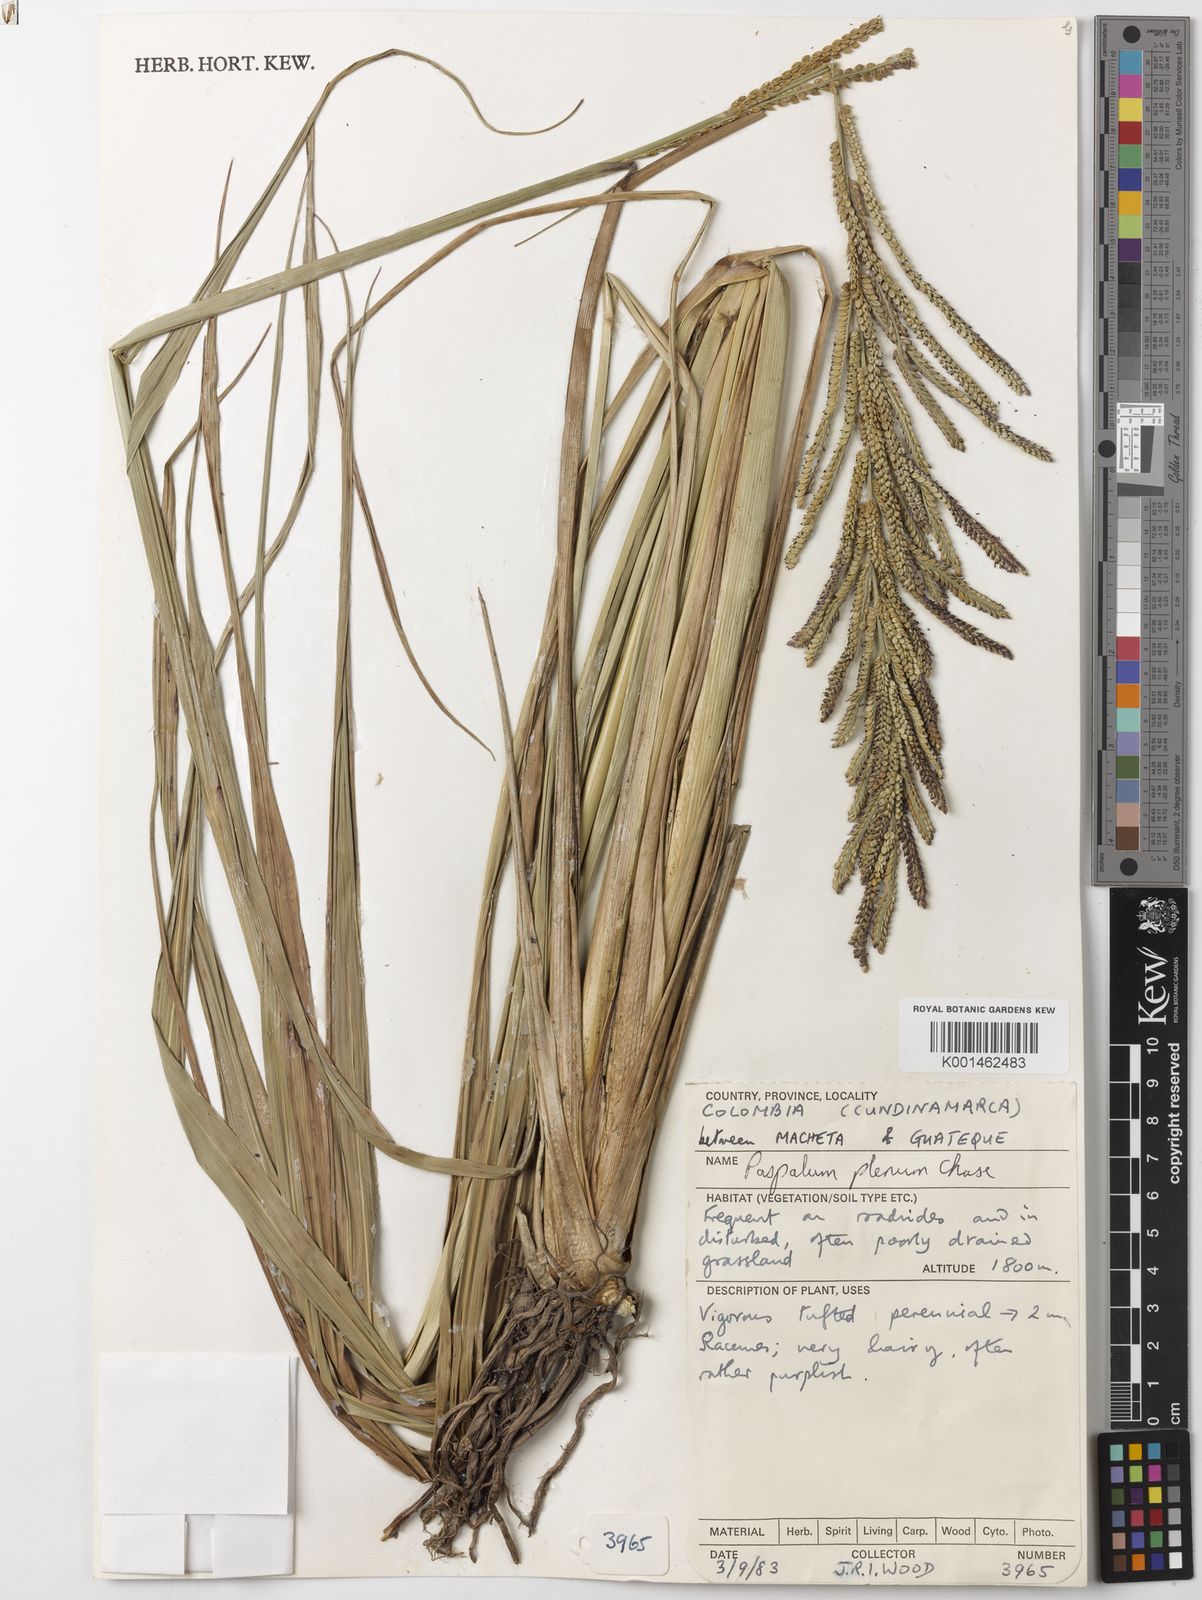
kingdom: Plantae
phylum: Tracheophyta
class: Liliopsida
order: Poales
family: Poaceae
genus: Paspalum
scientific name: Paspalum plenum
